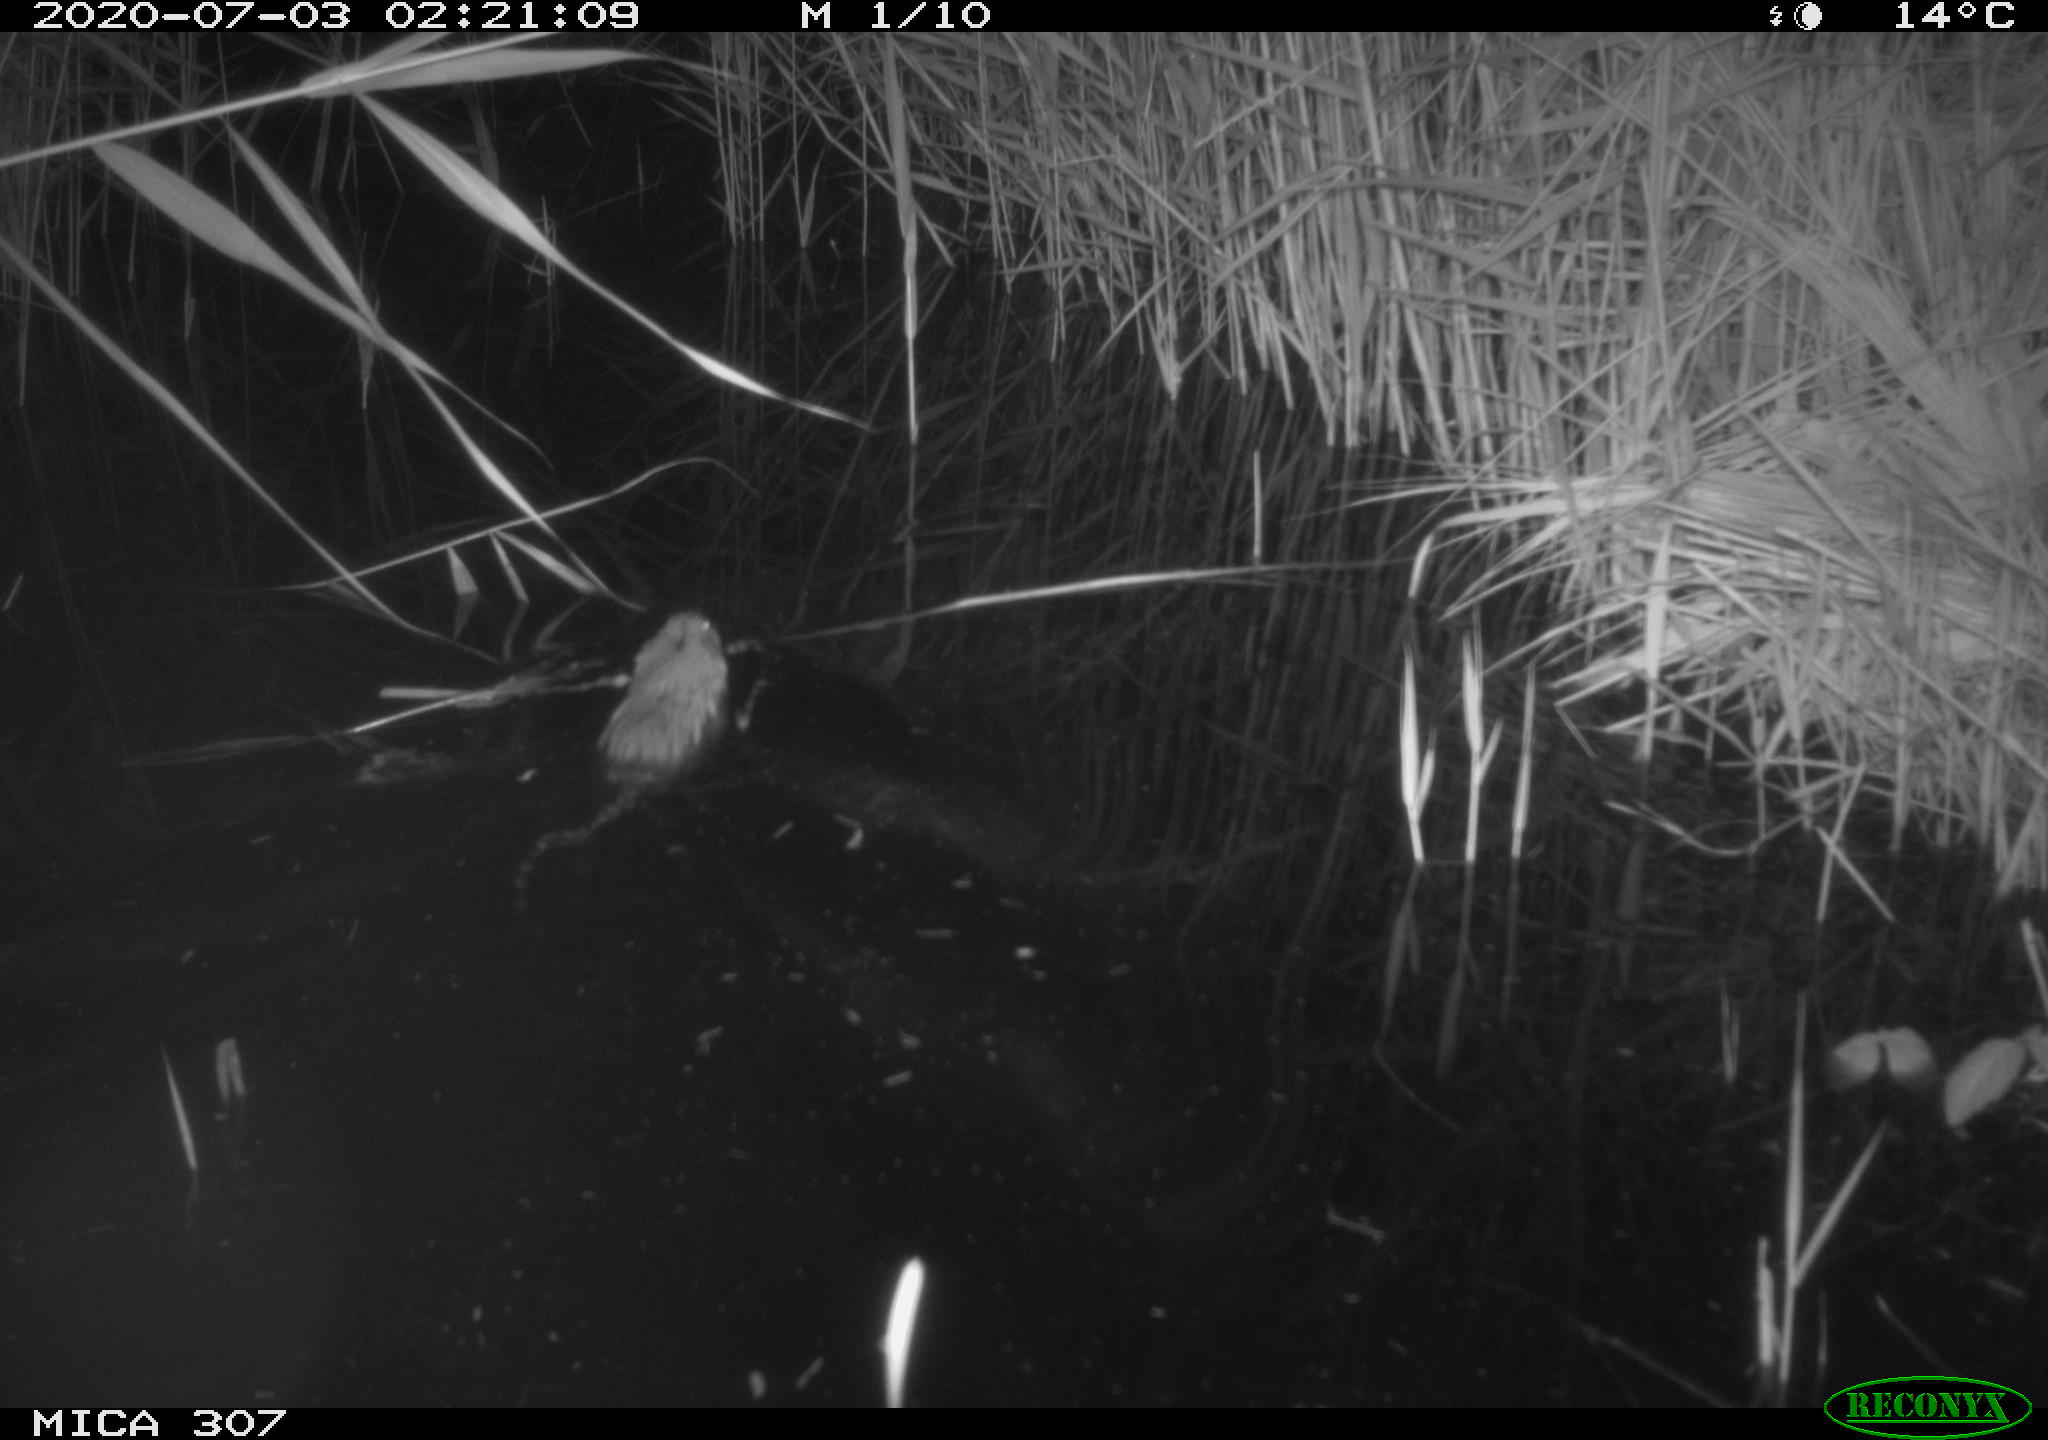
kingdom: Animalia
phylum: Chordata
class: Mammalia
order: Rodentia
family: Cricetidae
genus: Ondatra
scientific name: Ondatra zibethicus
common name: Muskrat
